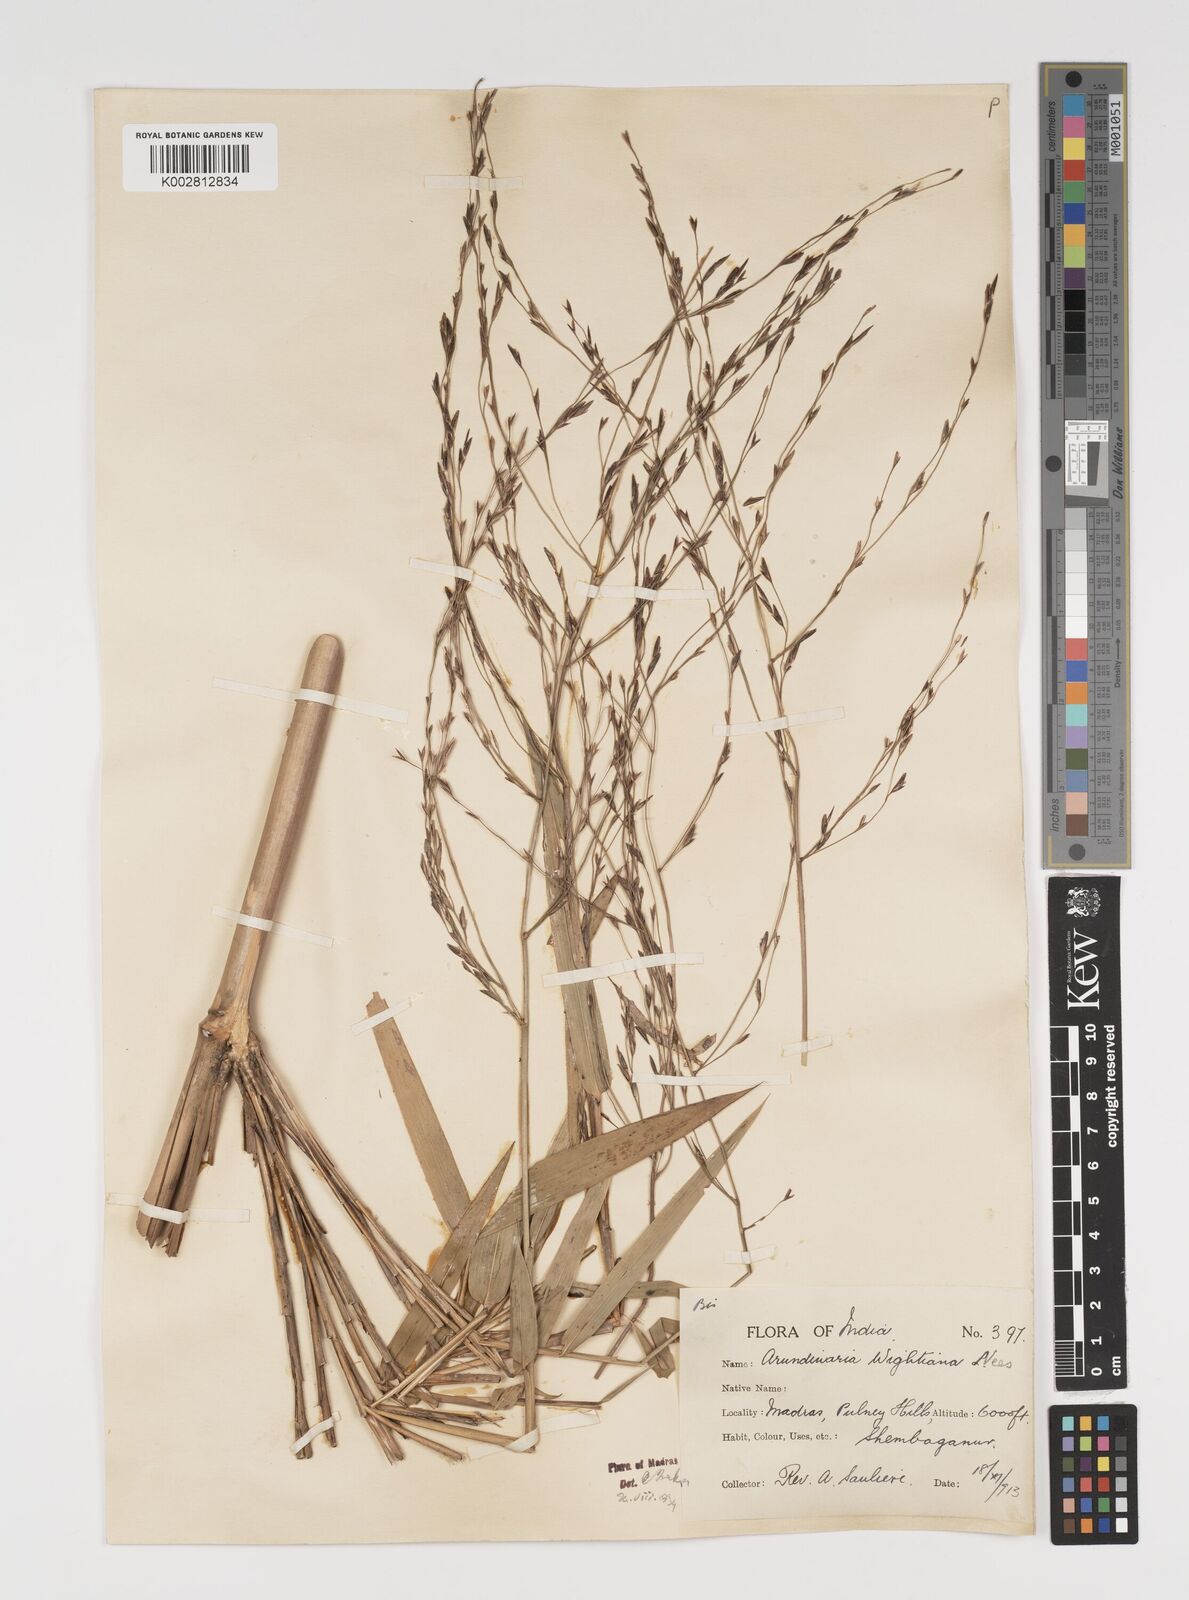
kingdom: Plantae
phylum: Tracheophyta
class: Liliopsida
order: Poales
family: Poaceae
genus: Kuruna
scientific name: Kuruna walkeriana
